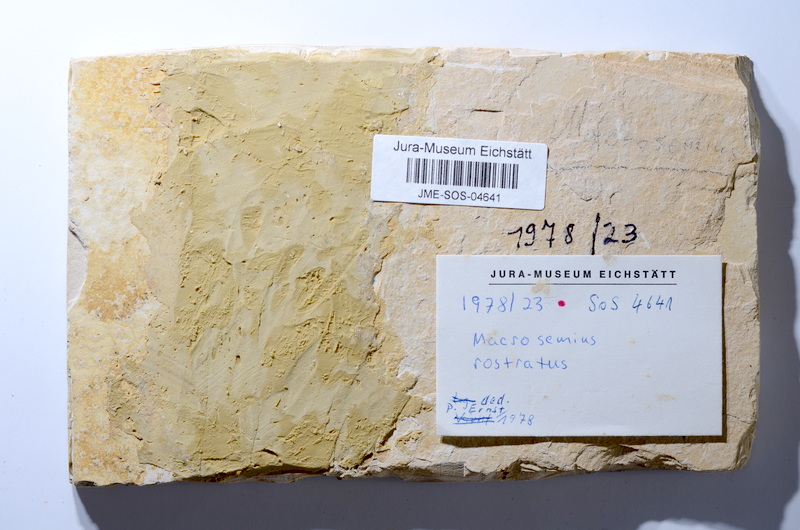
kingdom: Animalia
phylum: Chordata
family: Macrosemiidae
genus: Macrosemius
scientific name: Macrosemius rostratus
